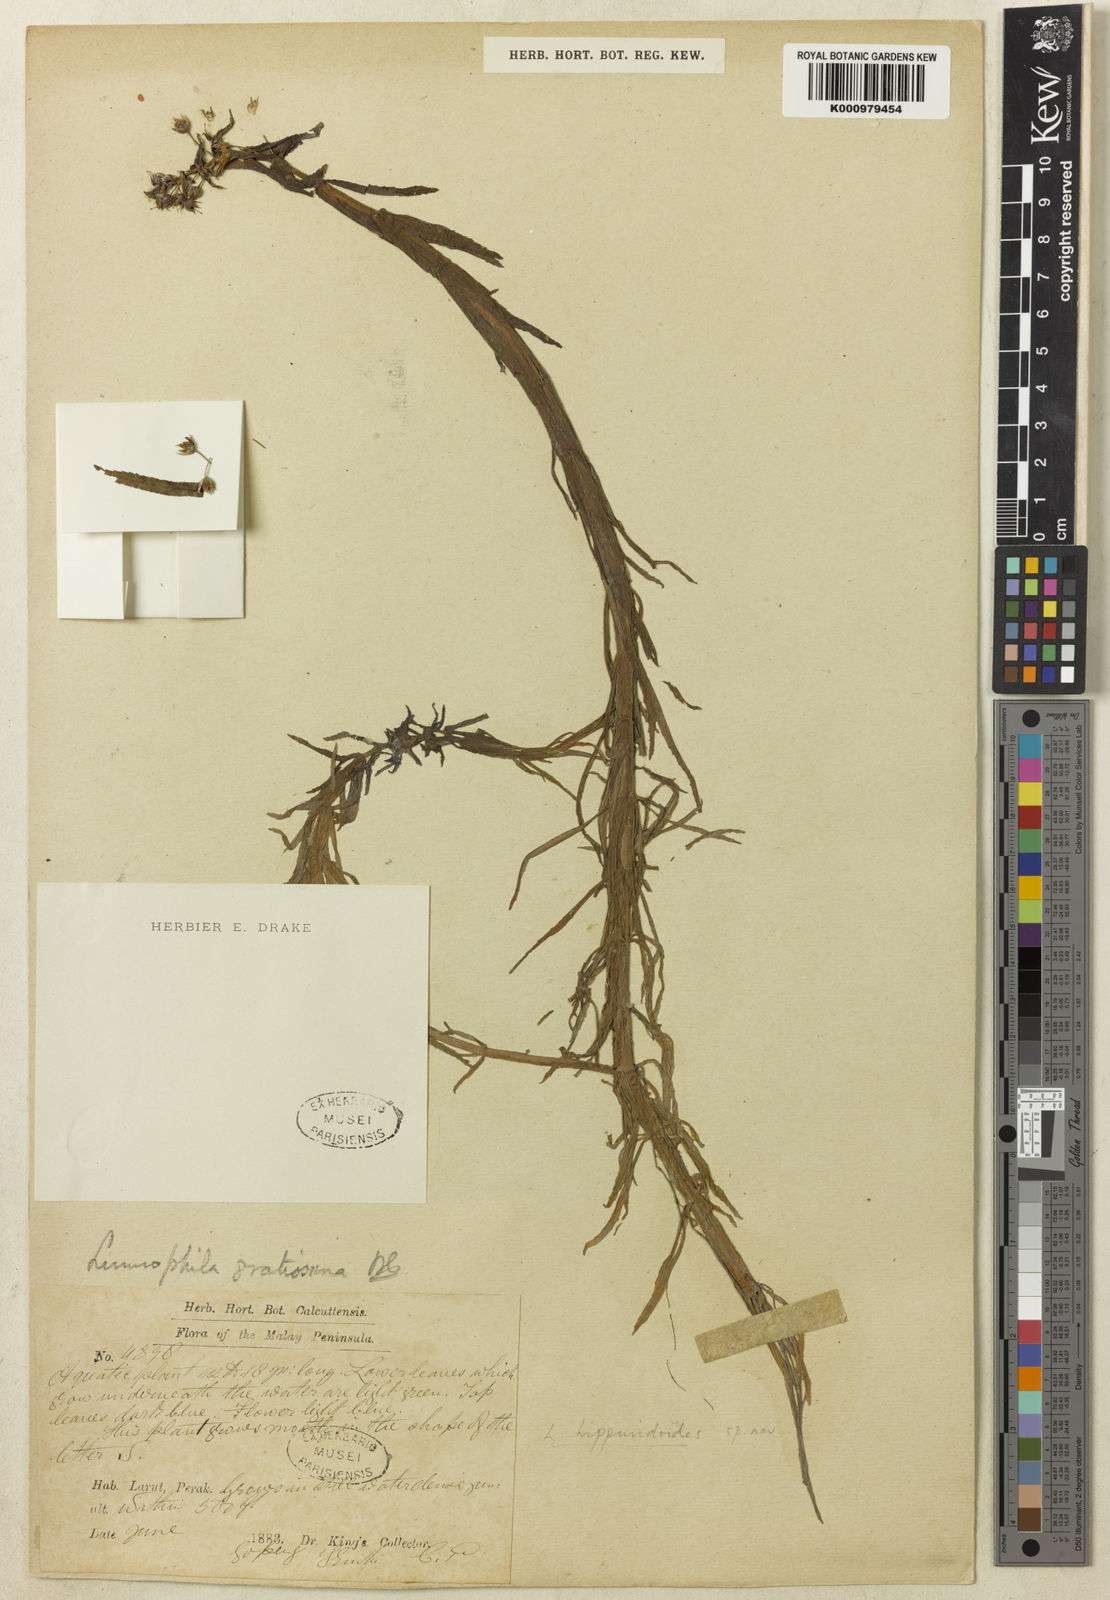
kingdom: Plantae
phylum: Tracheophyta
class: Magnoliopsida
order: Lamiales
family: Plantaginaceae
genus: Limnophila
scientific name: Limnophila hippuridoides
